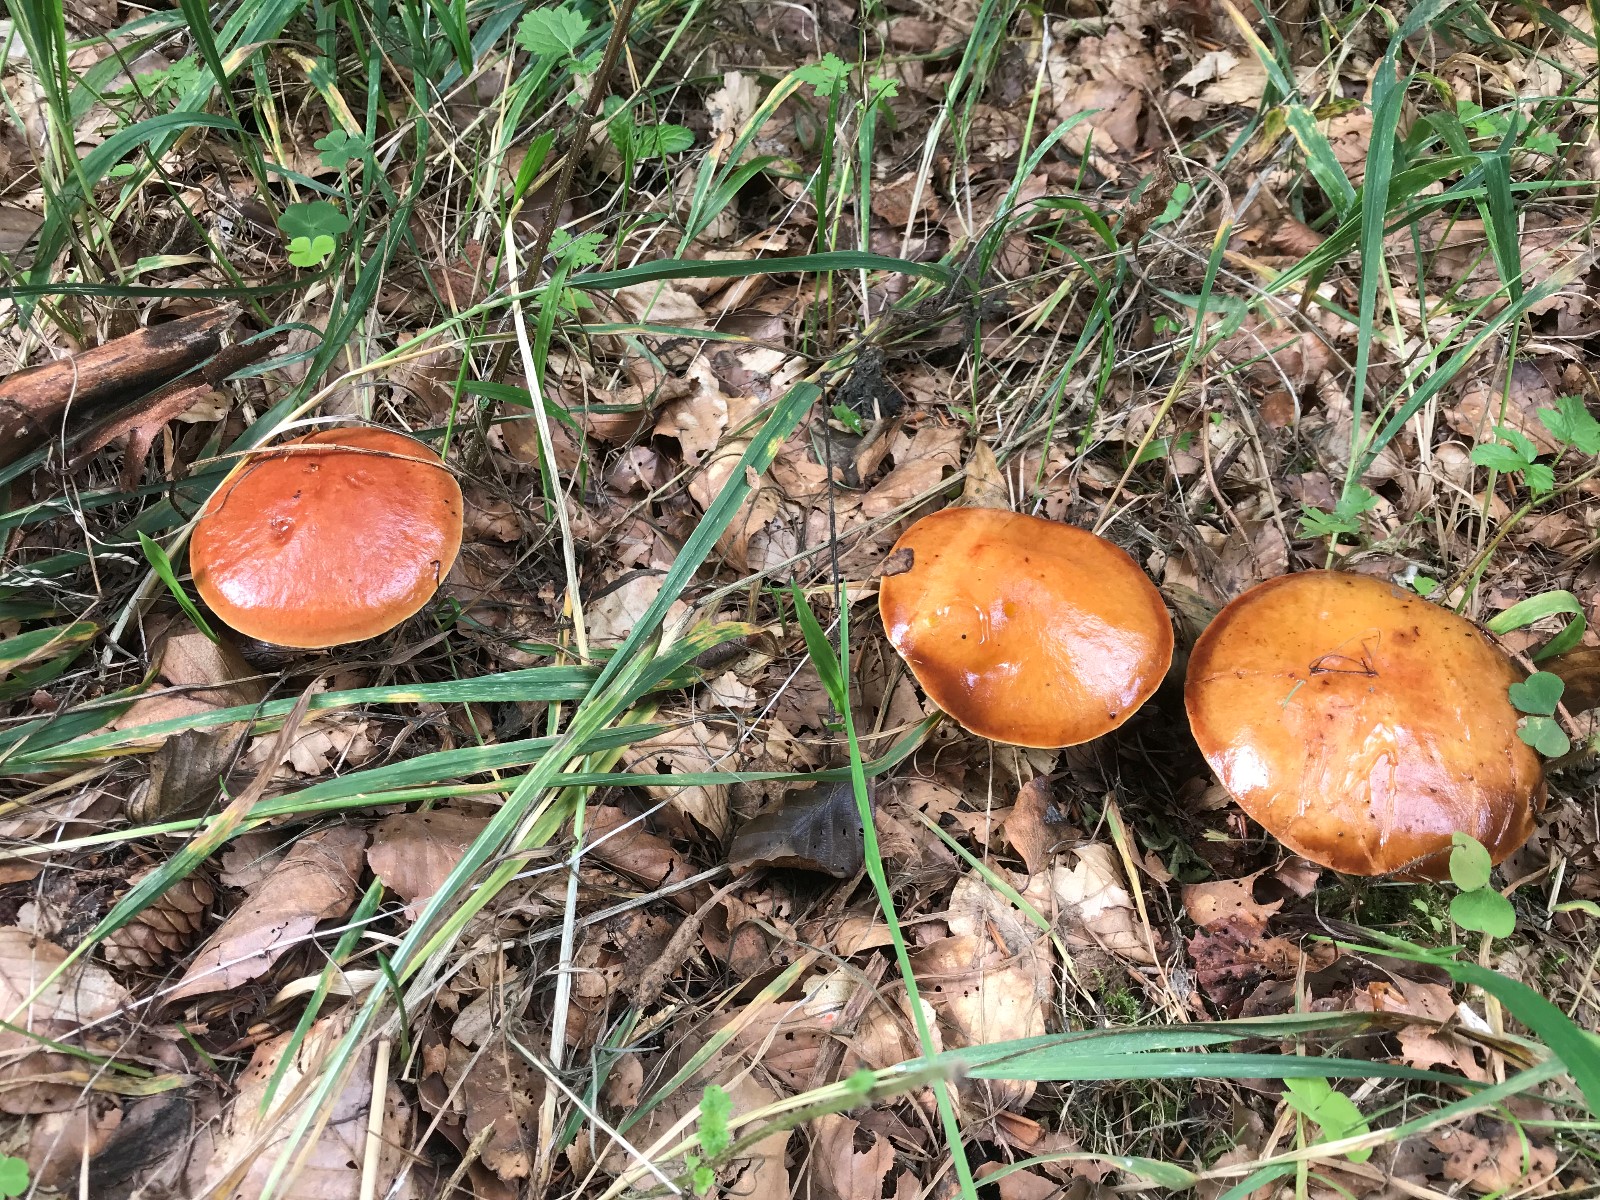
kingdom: Fungi
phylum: Basidiomycota
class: Agaricomycetes
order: Boletales
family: Suillaceae
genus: Suillus
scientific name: Suillus grevillei
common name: Larch bolete
